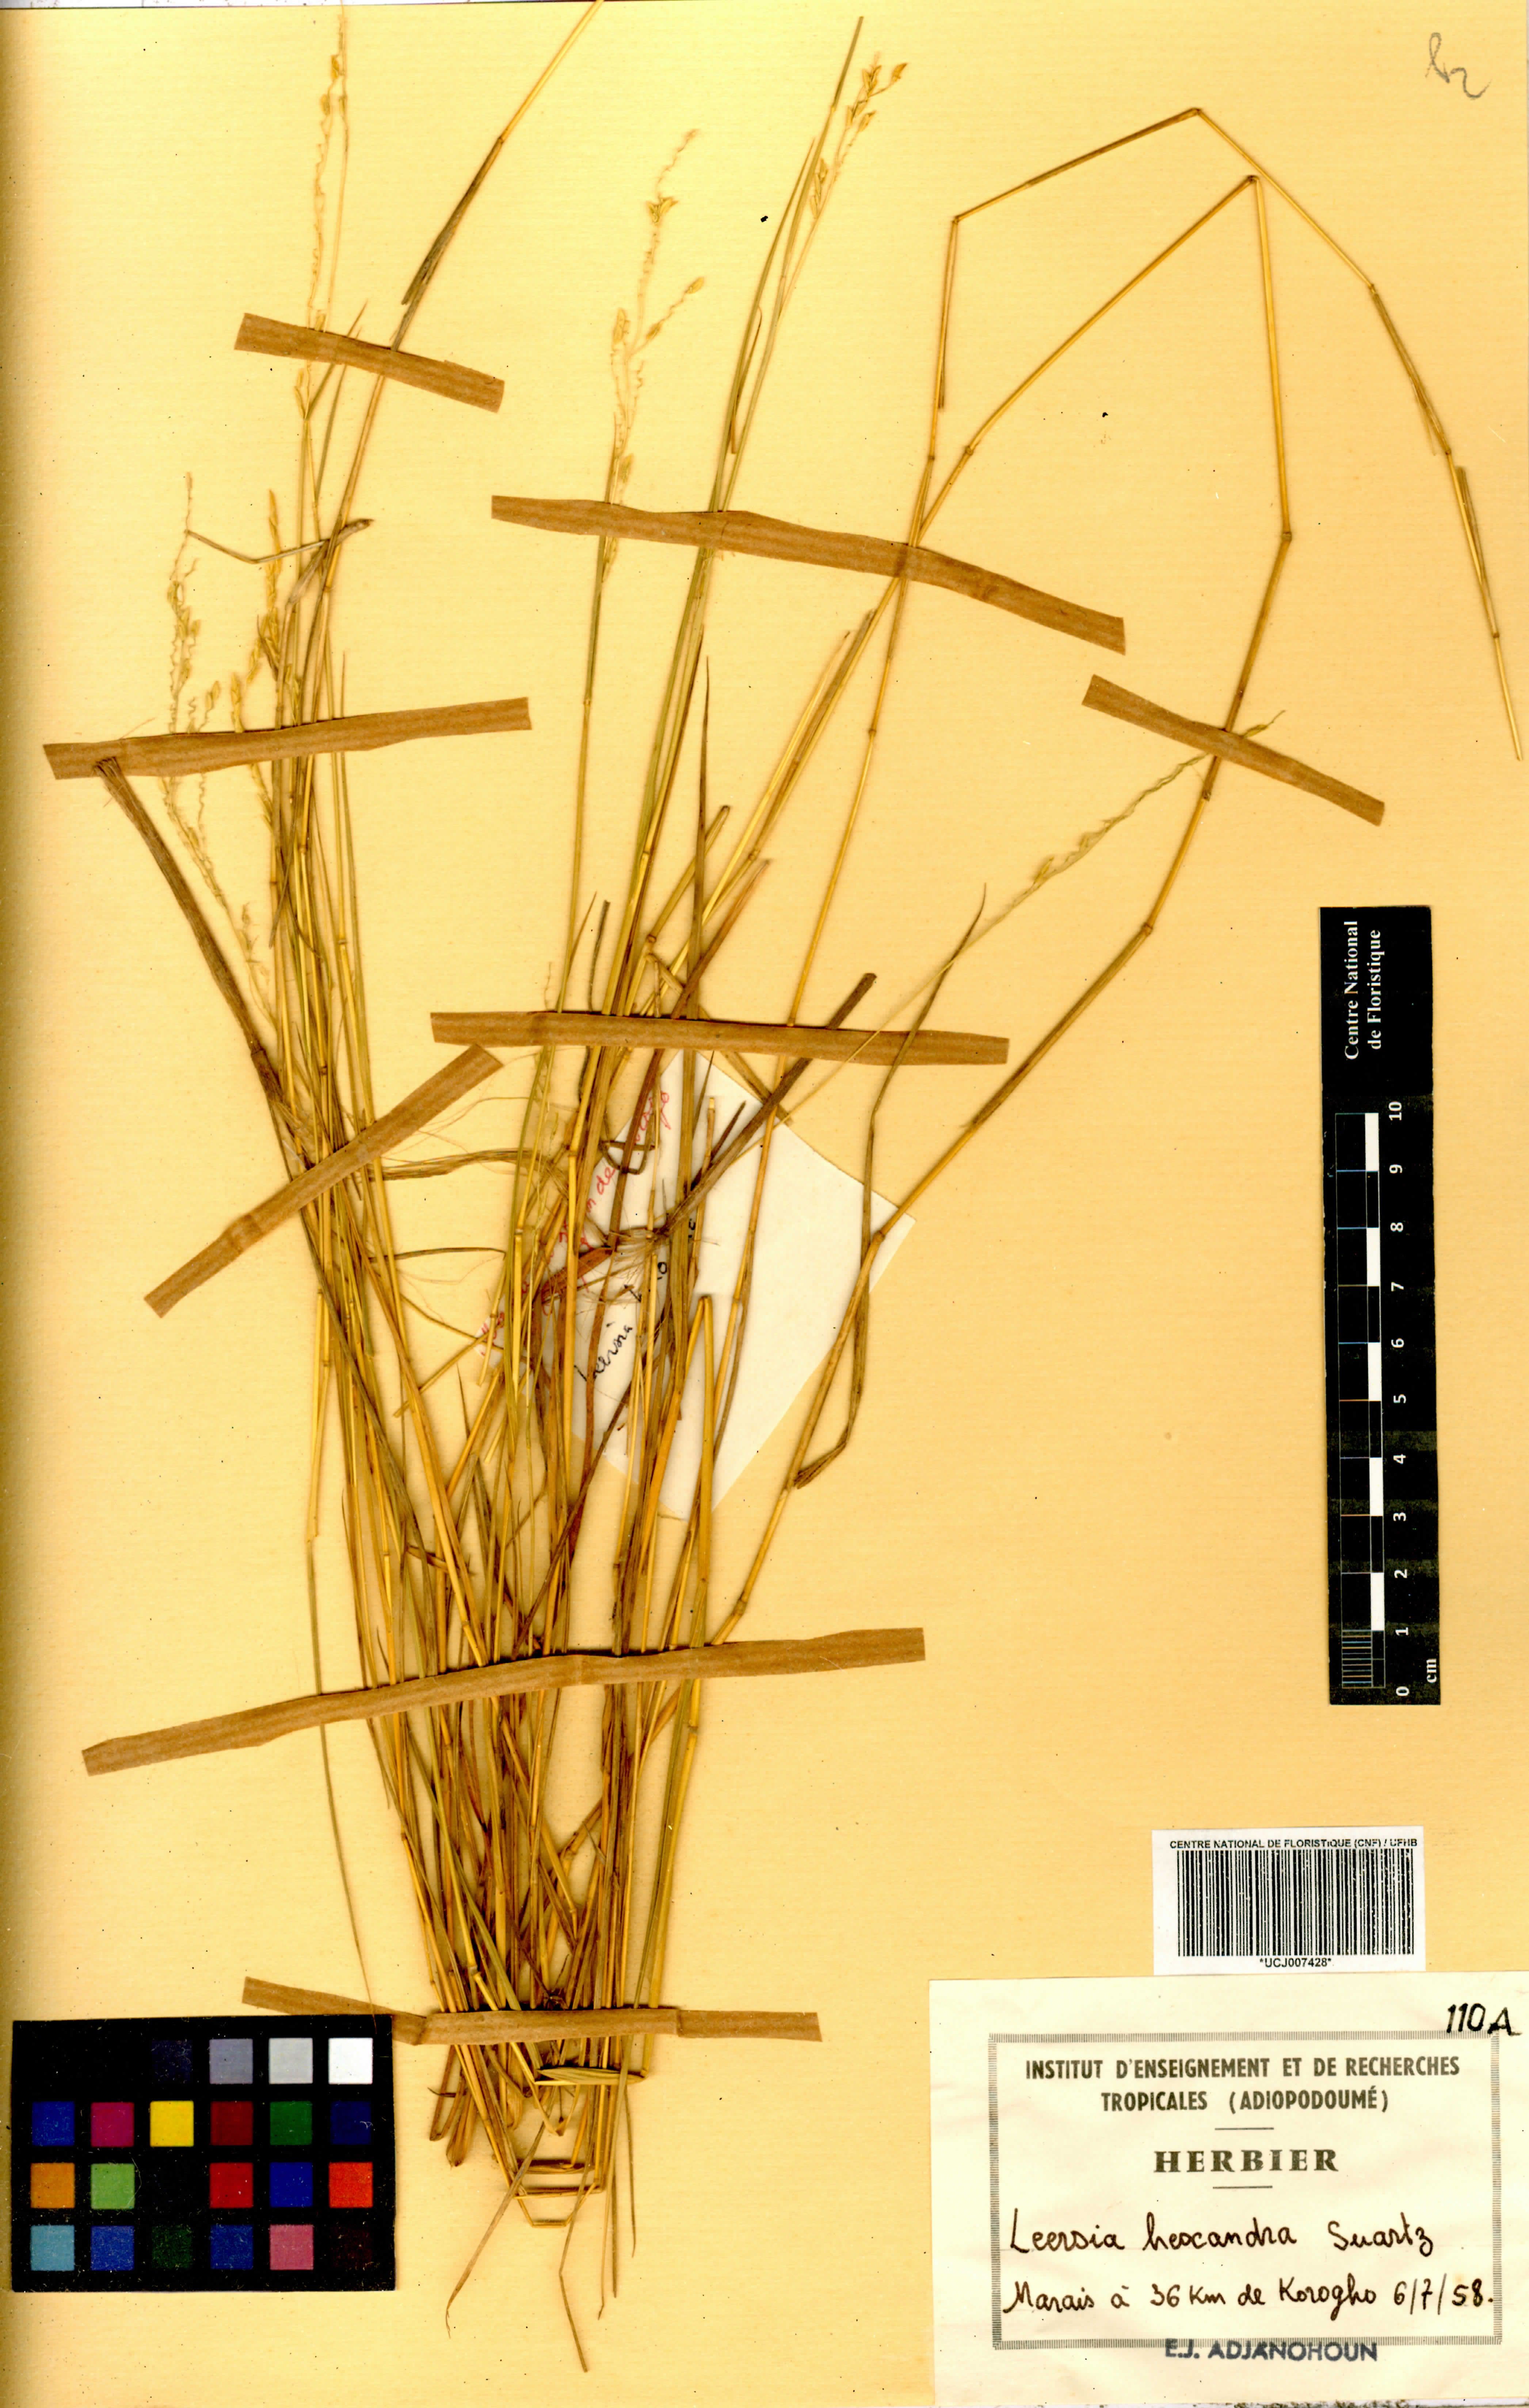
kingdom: Plantae
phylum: Tracheophyta
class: Liliopsida
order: Poales
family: Poaceae
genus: Leersia
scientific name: Leersia hexandra
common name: Southern cut grass
